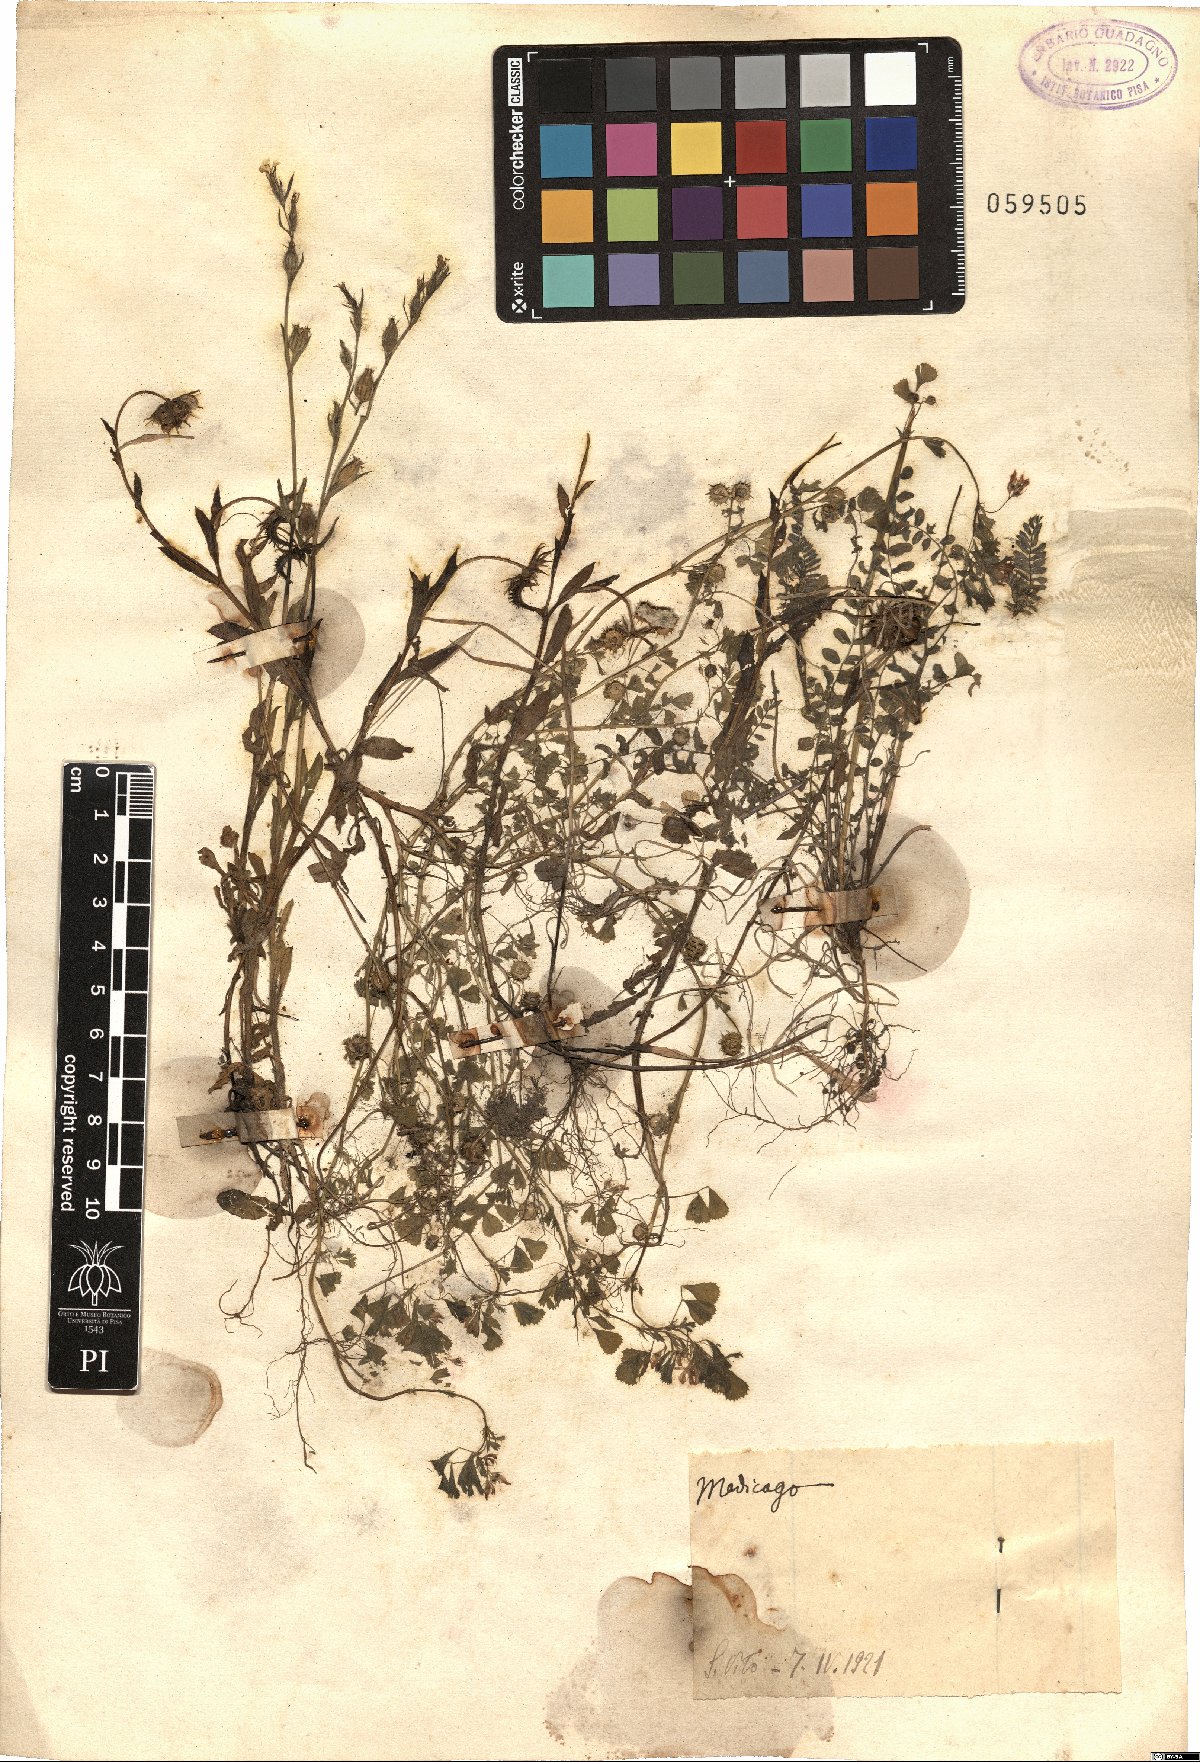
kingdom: Plantae
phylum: Tracheophyta
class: Magnoliopsida
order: Fabales
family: Fabaceae
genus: Medicago
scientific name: Medicago
